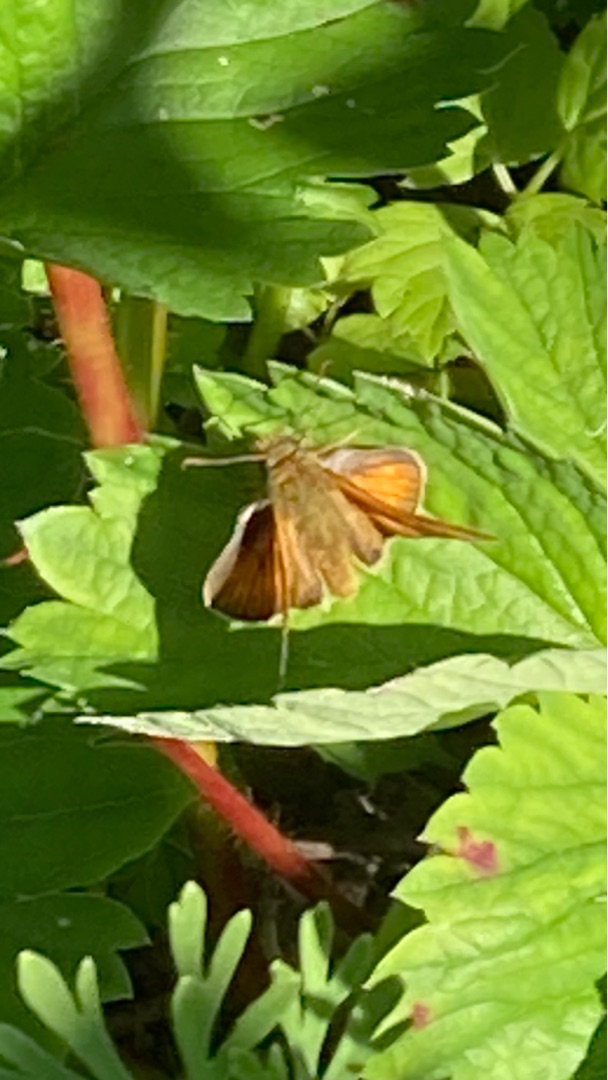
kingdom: Animalia
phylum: Arthropoda
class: Insecta
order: Lepidoptera
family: Hesperiidae
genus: Ochlodes
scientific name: Ochlodes venata
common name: Stor bredpande
